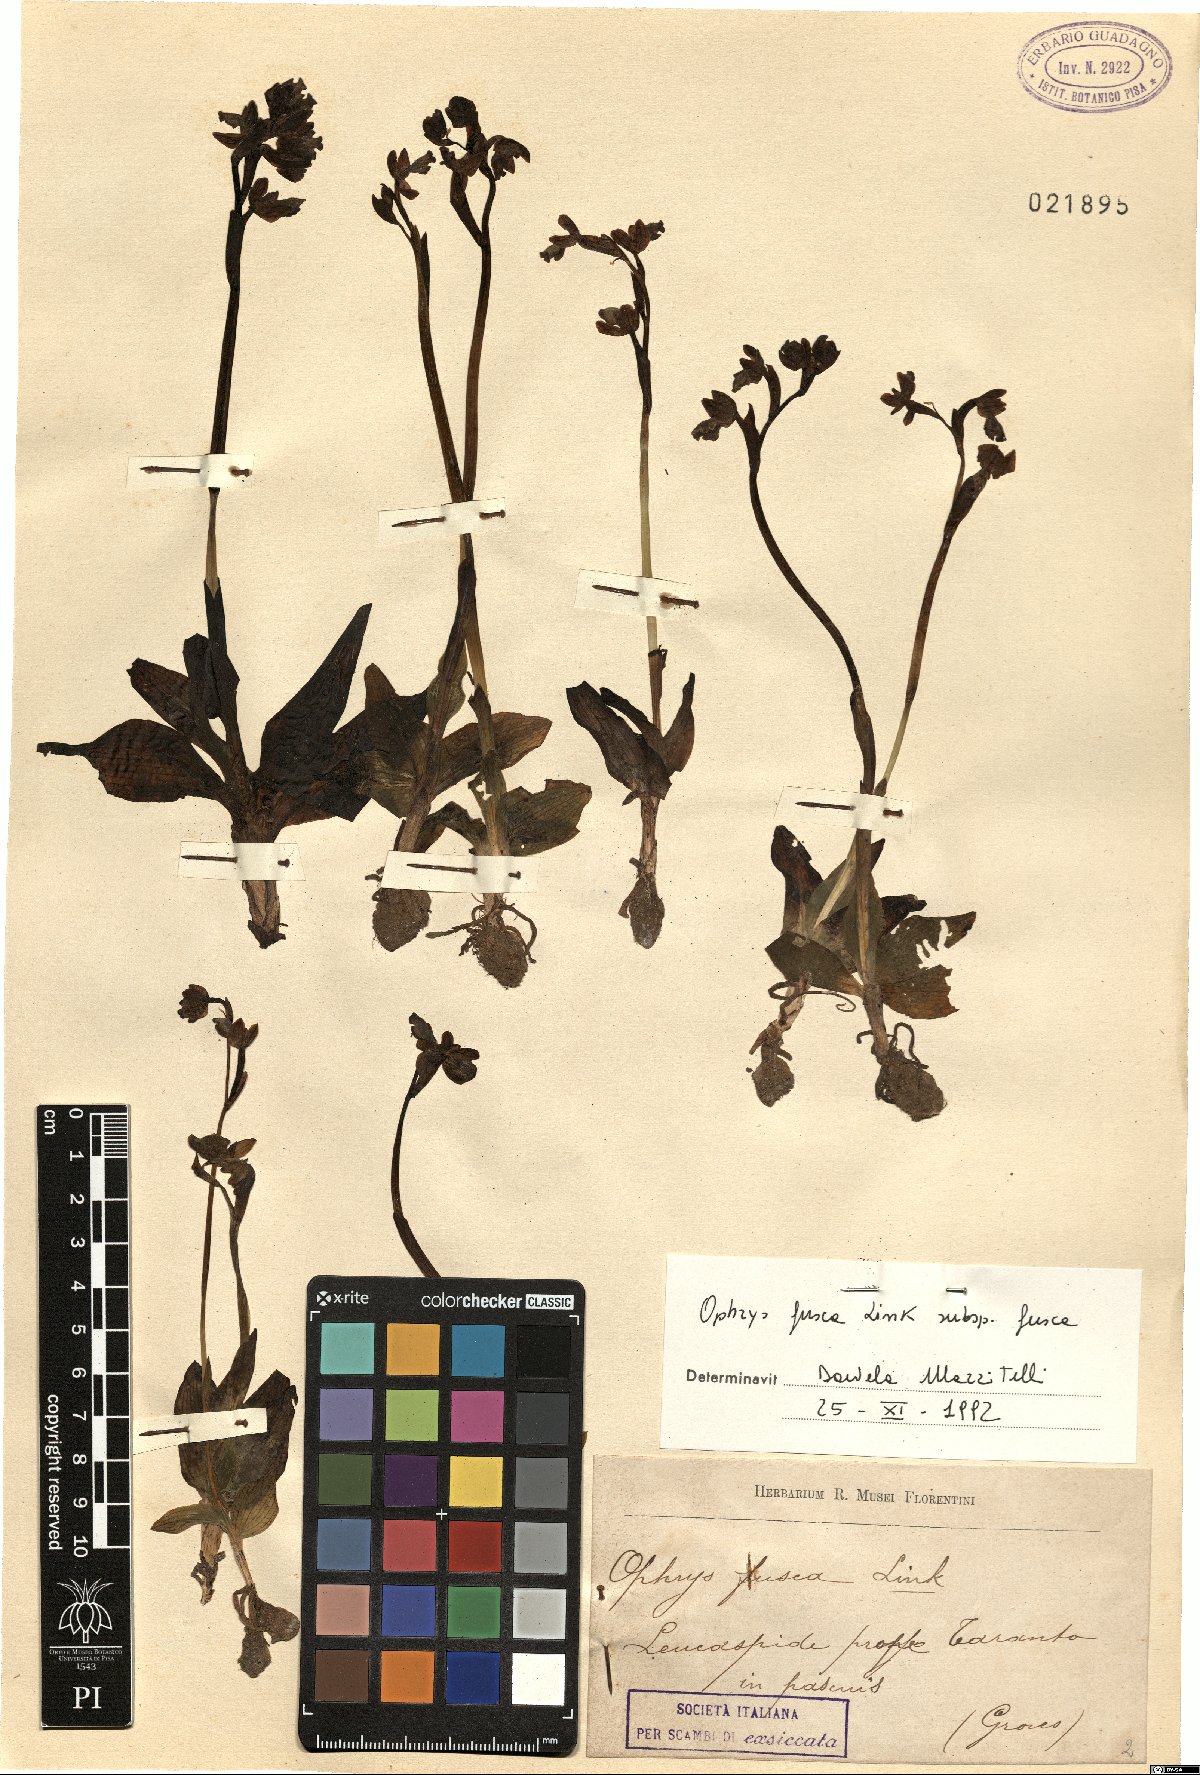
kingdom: Plantae
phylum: Tracheophyta
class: Liliopsida
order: Asparagales
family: Orchidaceae
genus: Ophrys
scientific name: Ophrys fusca
